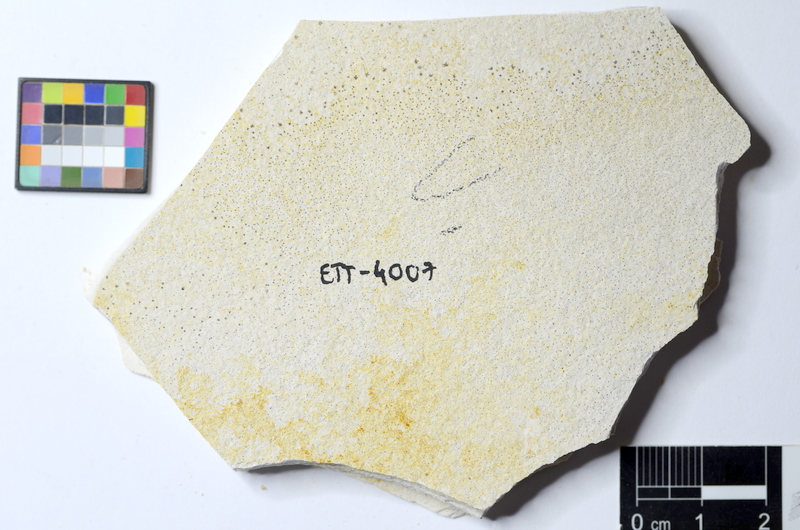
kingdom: Animalia
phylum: Chordata
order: Salmoniformes
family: Orthogonikleithridae
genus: Orthogonikleithrus
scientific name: Orthogonikleithrus hoelli
